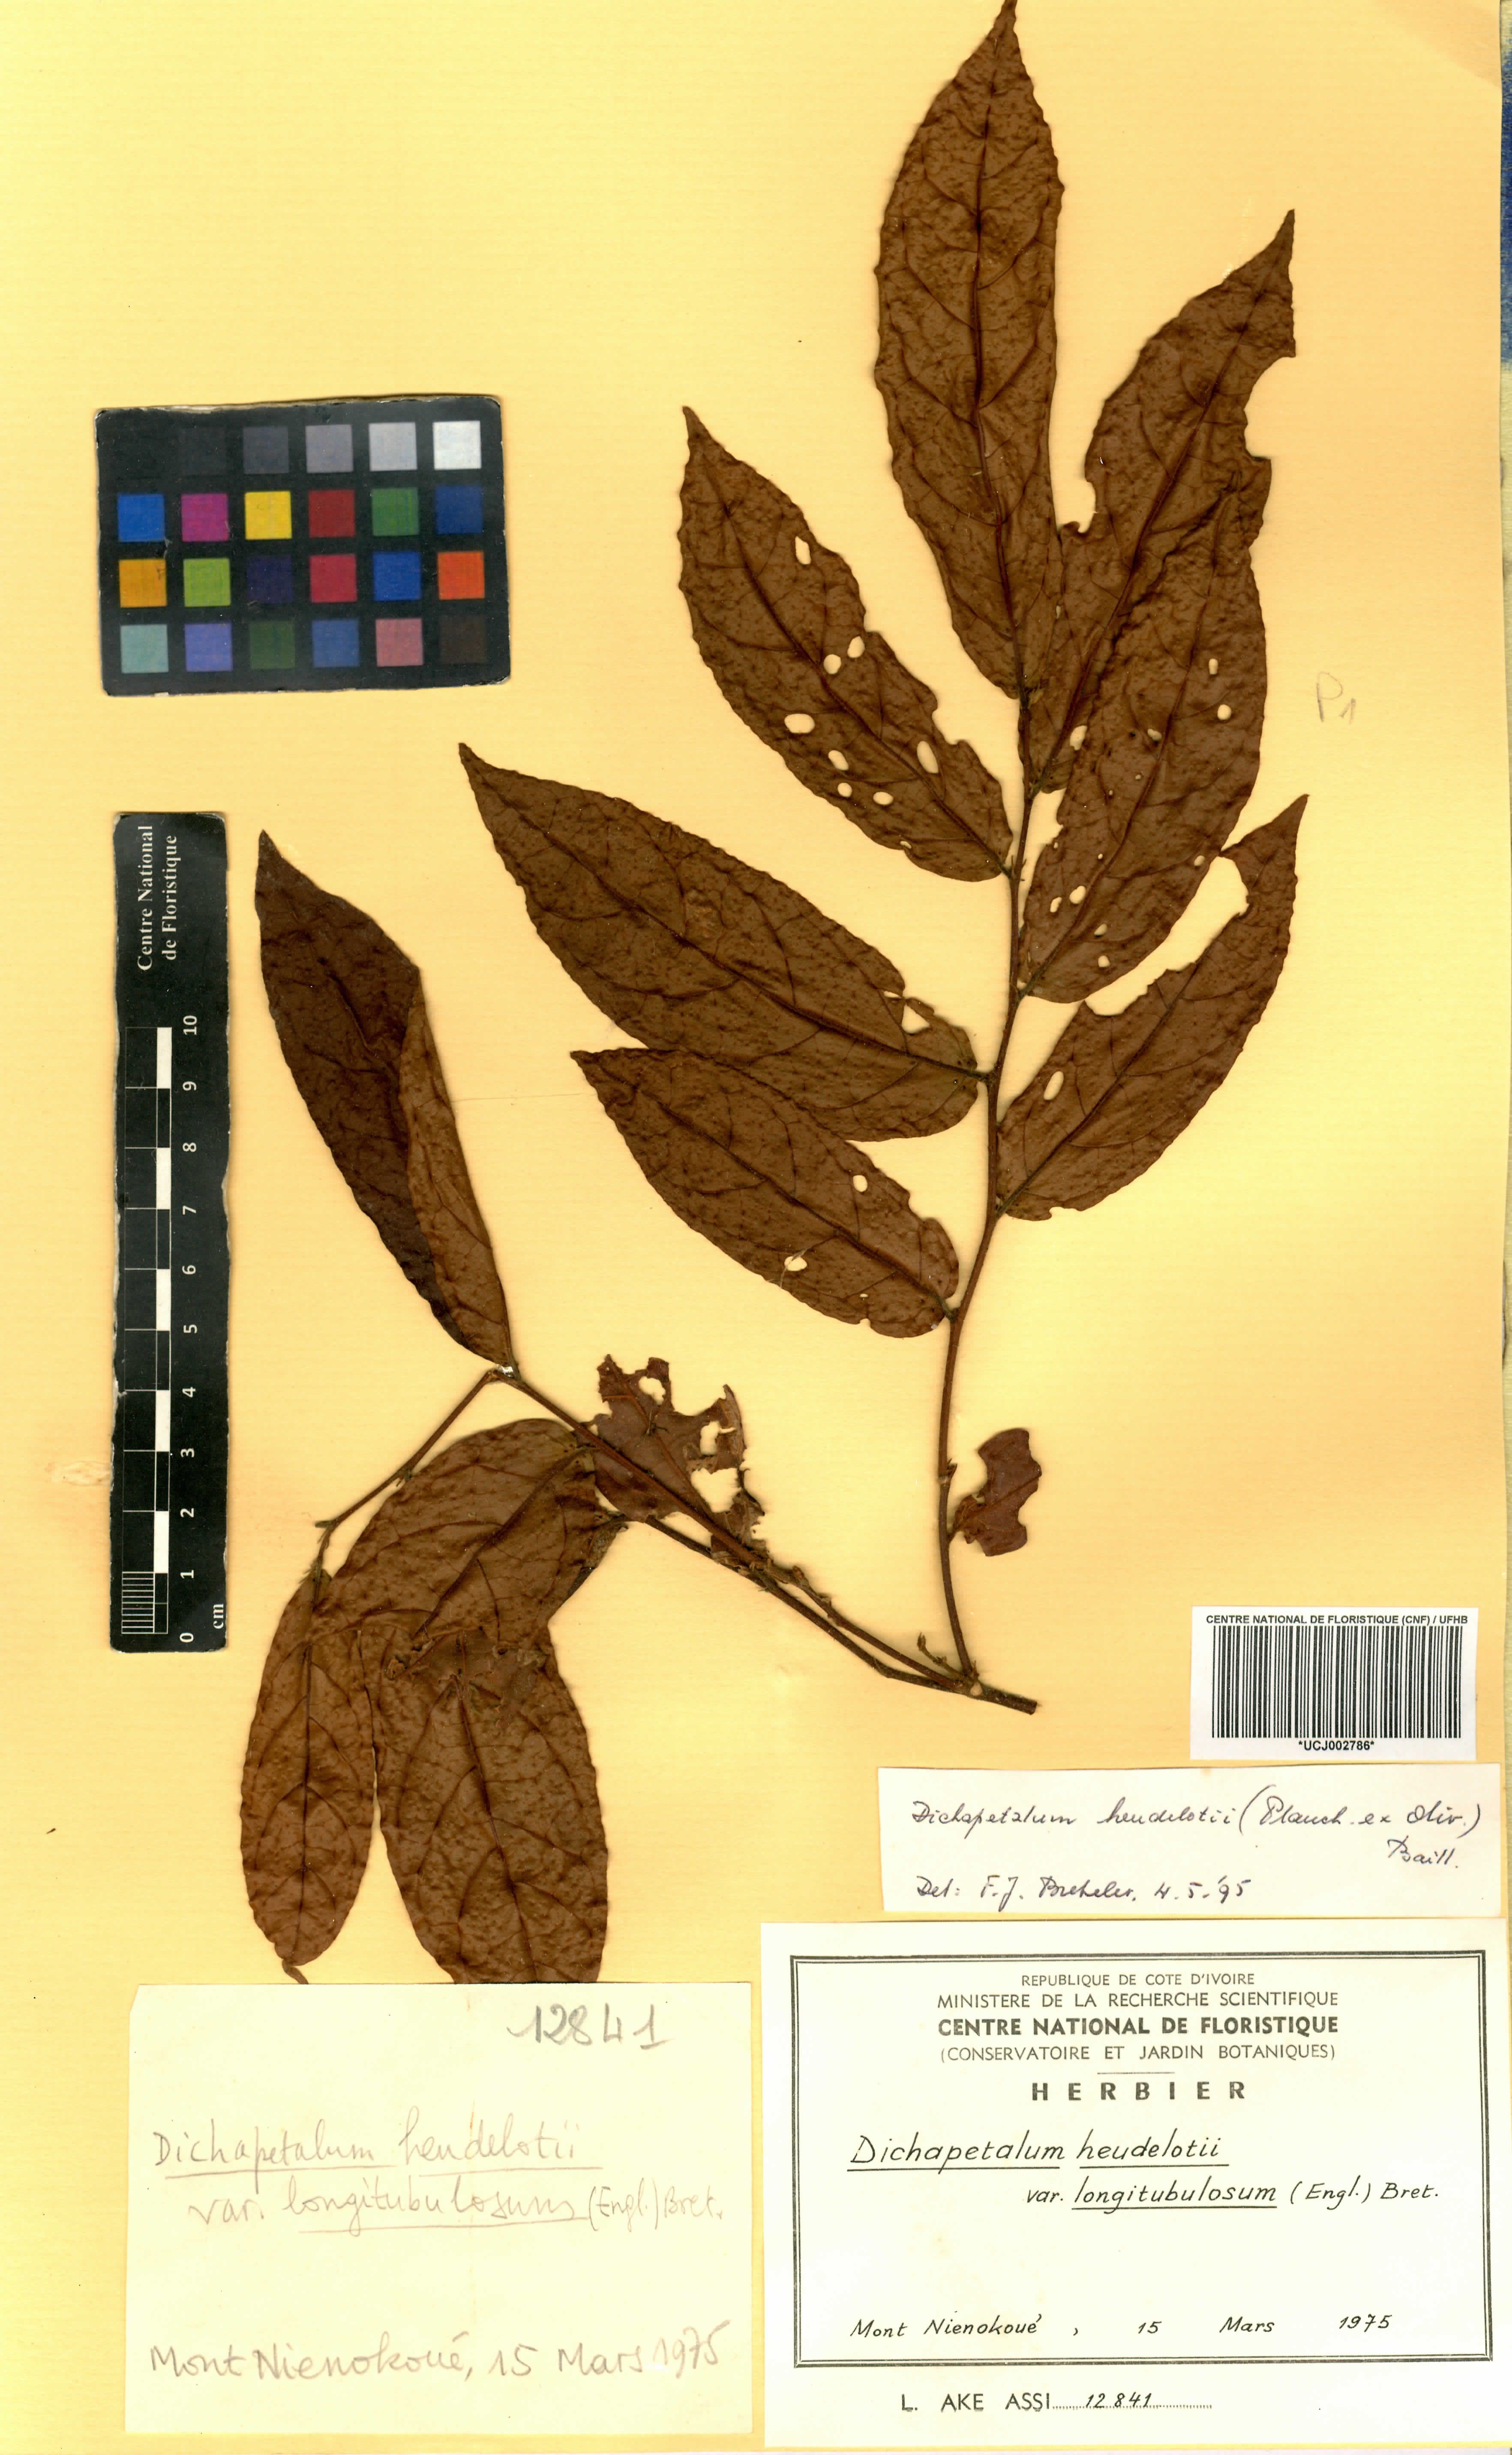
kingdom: Plantae
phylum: Tracheophyta
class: Magnoliopsida
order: Malpighiales
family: Dichapetalaceae
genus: Dichapetalum
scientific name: Dichapetalum heudelotii
